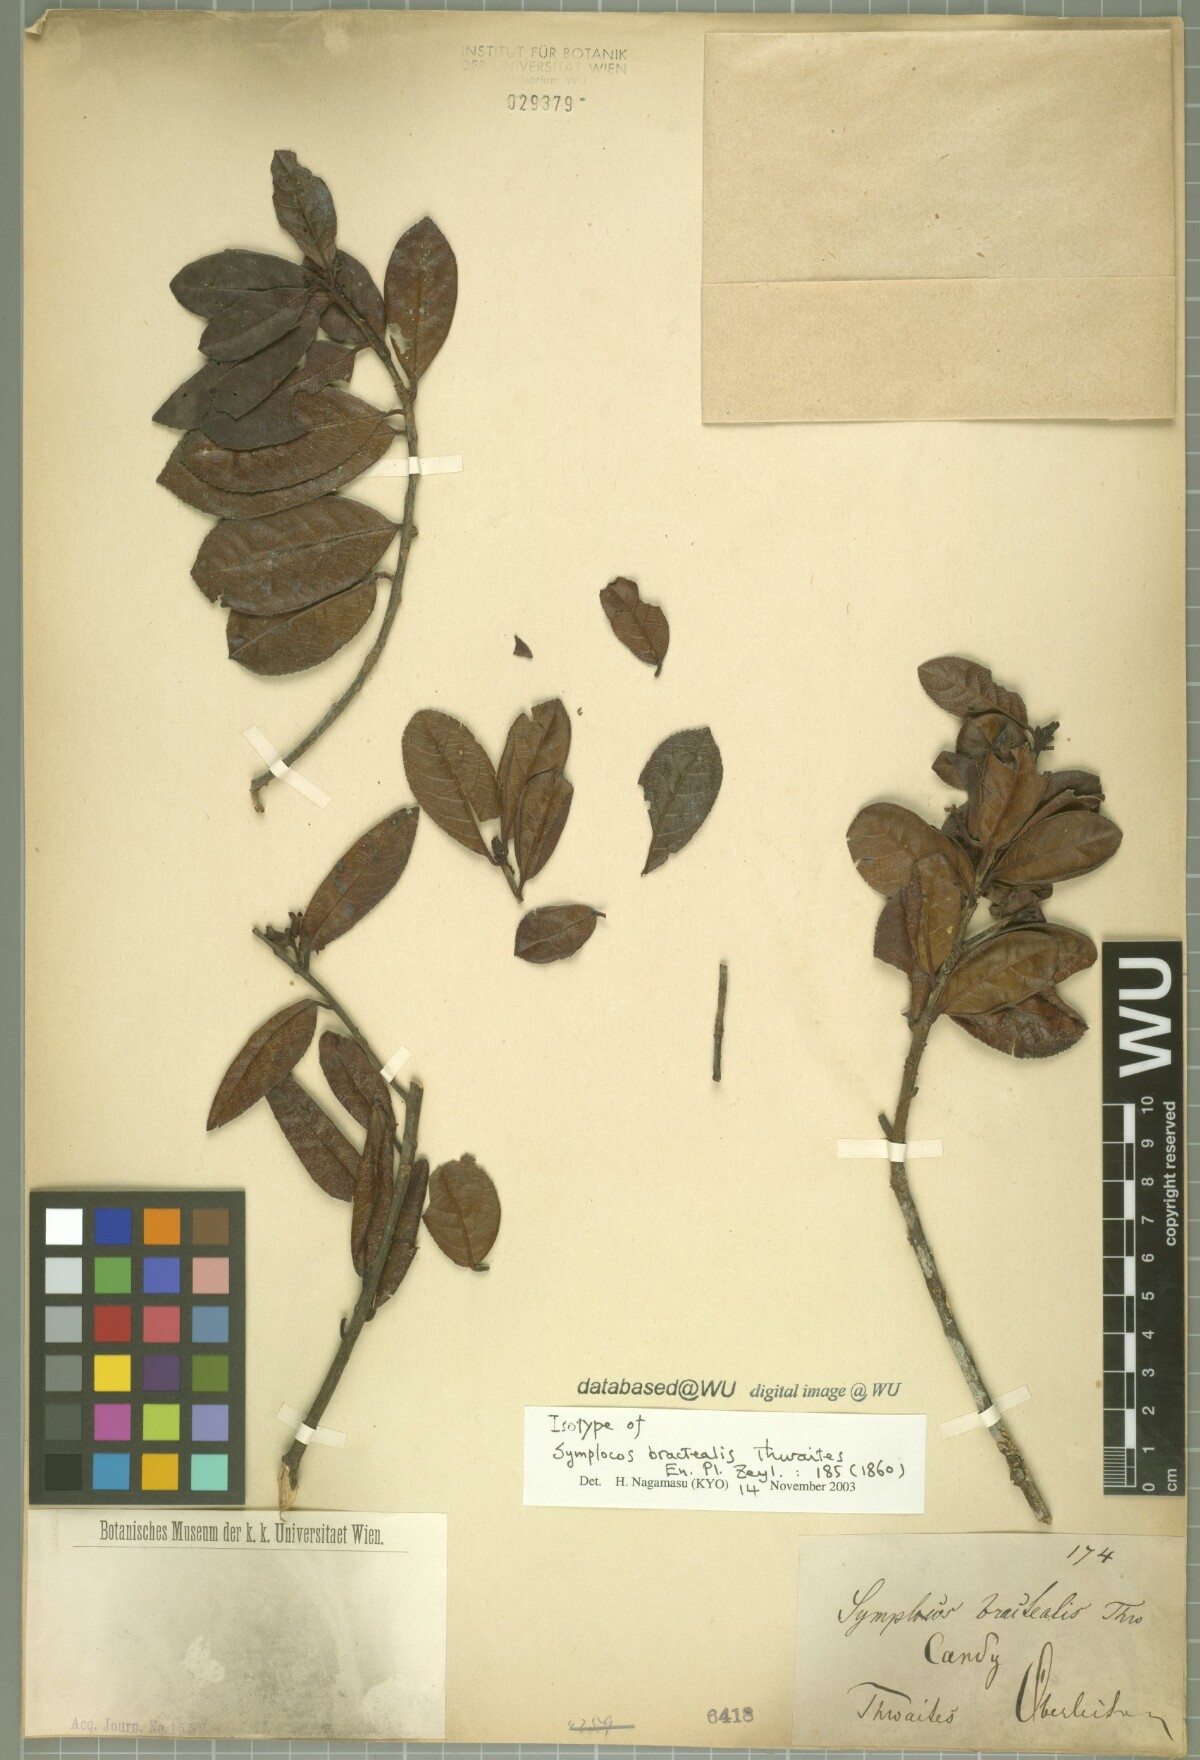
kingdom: Plantae
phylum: Tracheophyta
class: Magnoliopsida
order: Ericales
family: Symplocaceae
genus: Symplocos
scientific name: Symplocos bractealis
